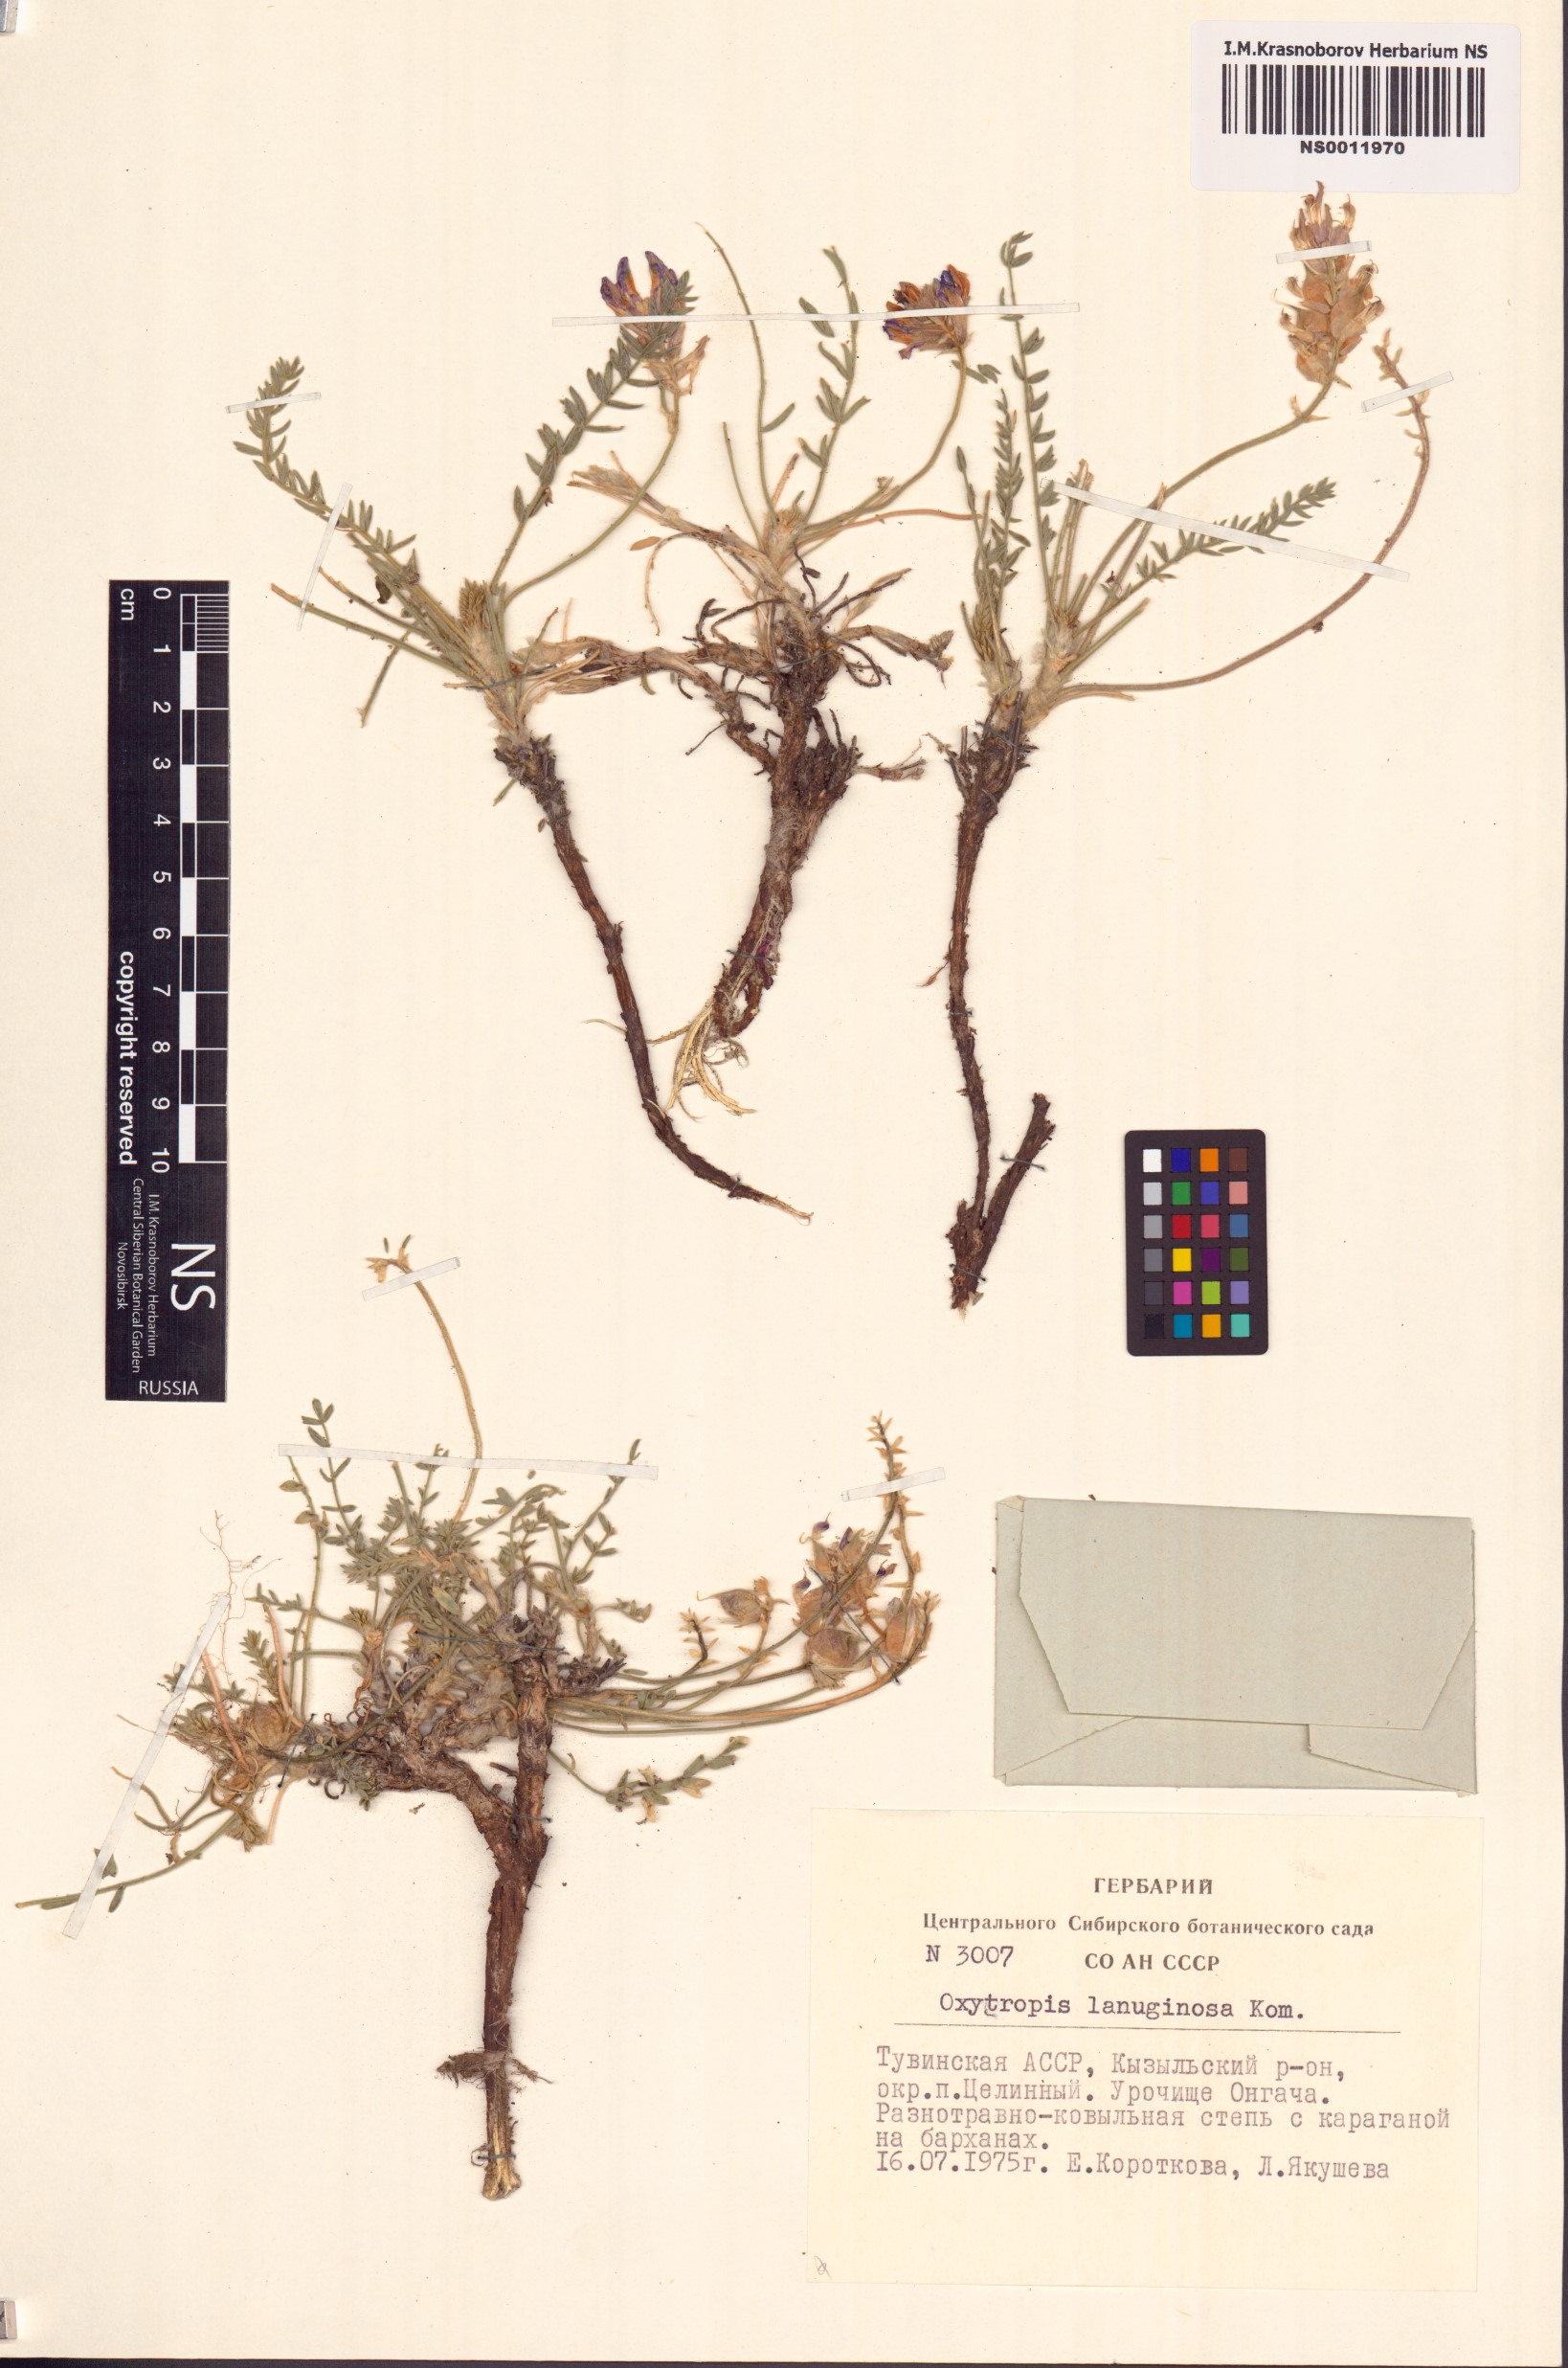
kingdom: Plantae
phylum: Tracheophyta
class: Magnoliopsida
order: Fabales
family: Fabaceae
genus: Oxytropis
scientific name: Oxytropis lanuginosa
